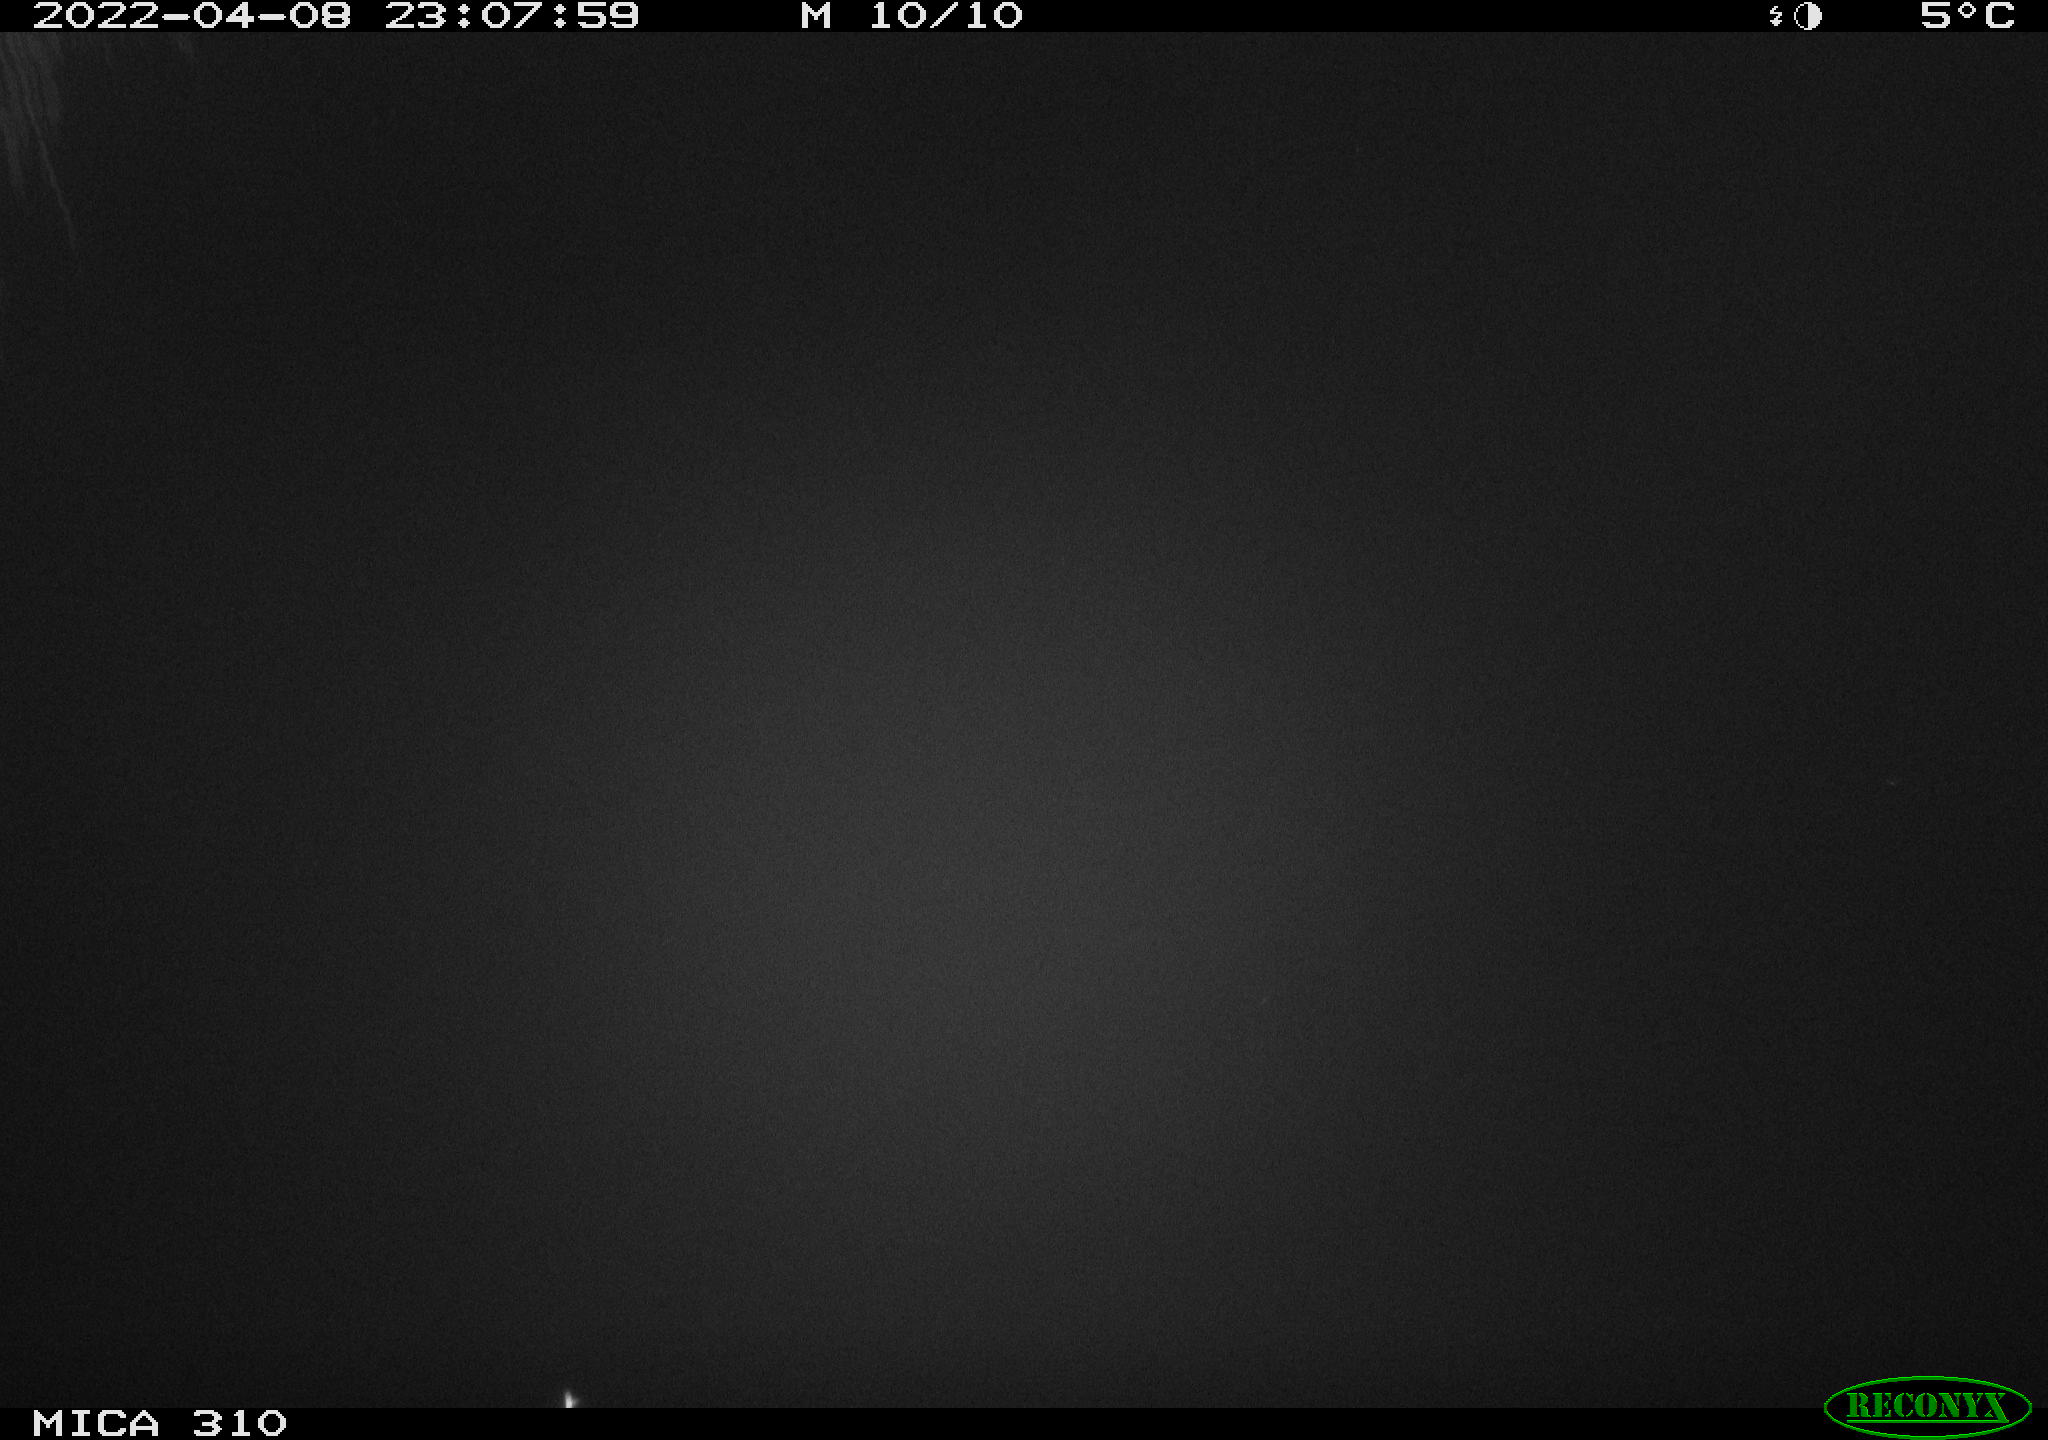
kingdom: Animalia
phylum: Chordata
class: Aves
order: Anseriformes
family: Anatidae
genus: Anas
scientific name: Anas platyrhynchos
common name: Mallard
